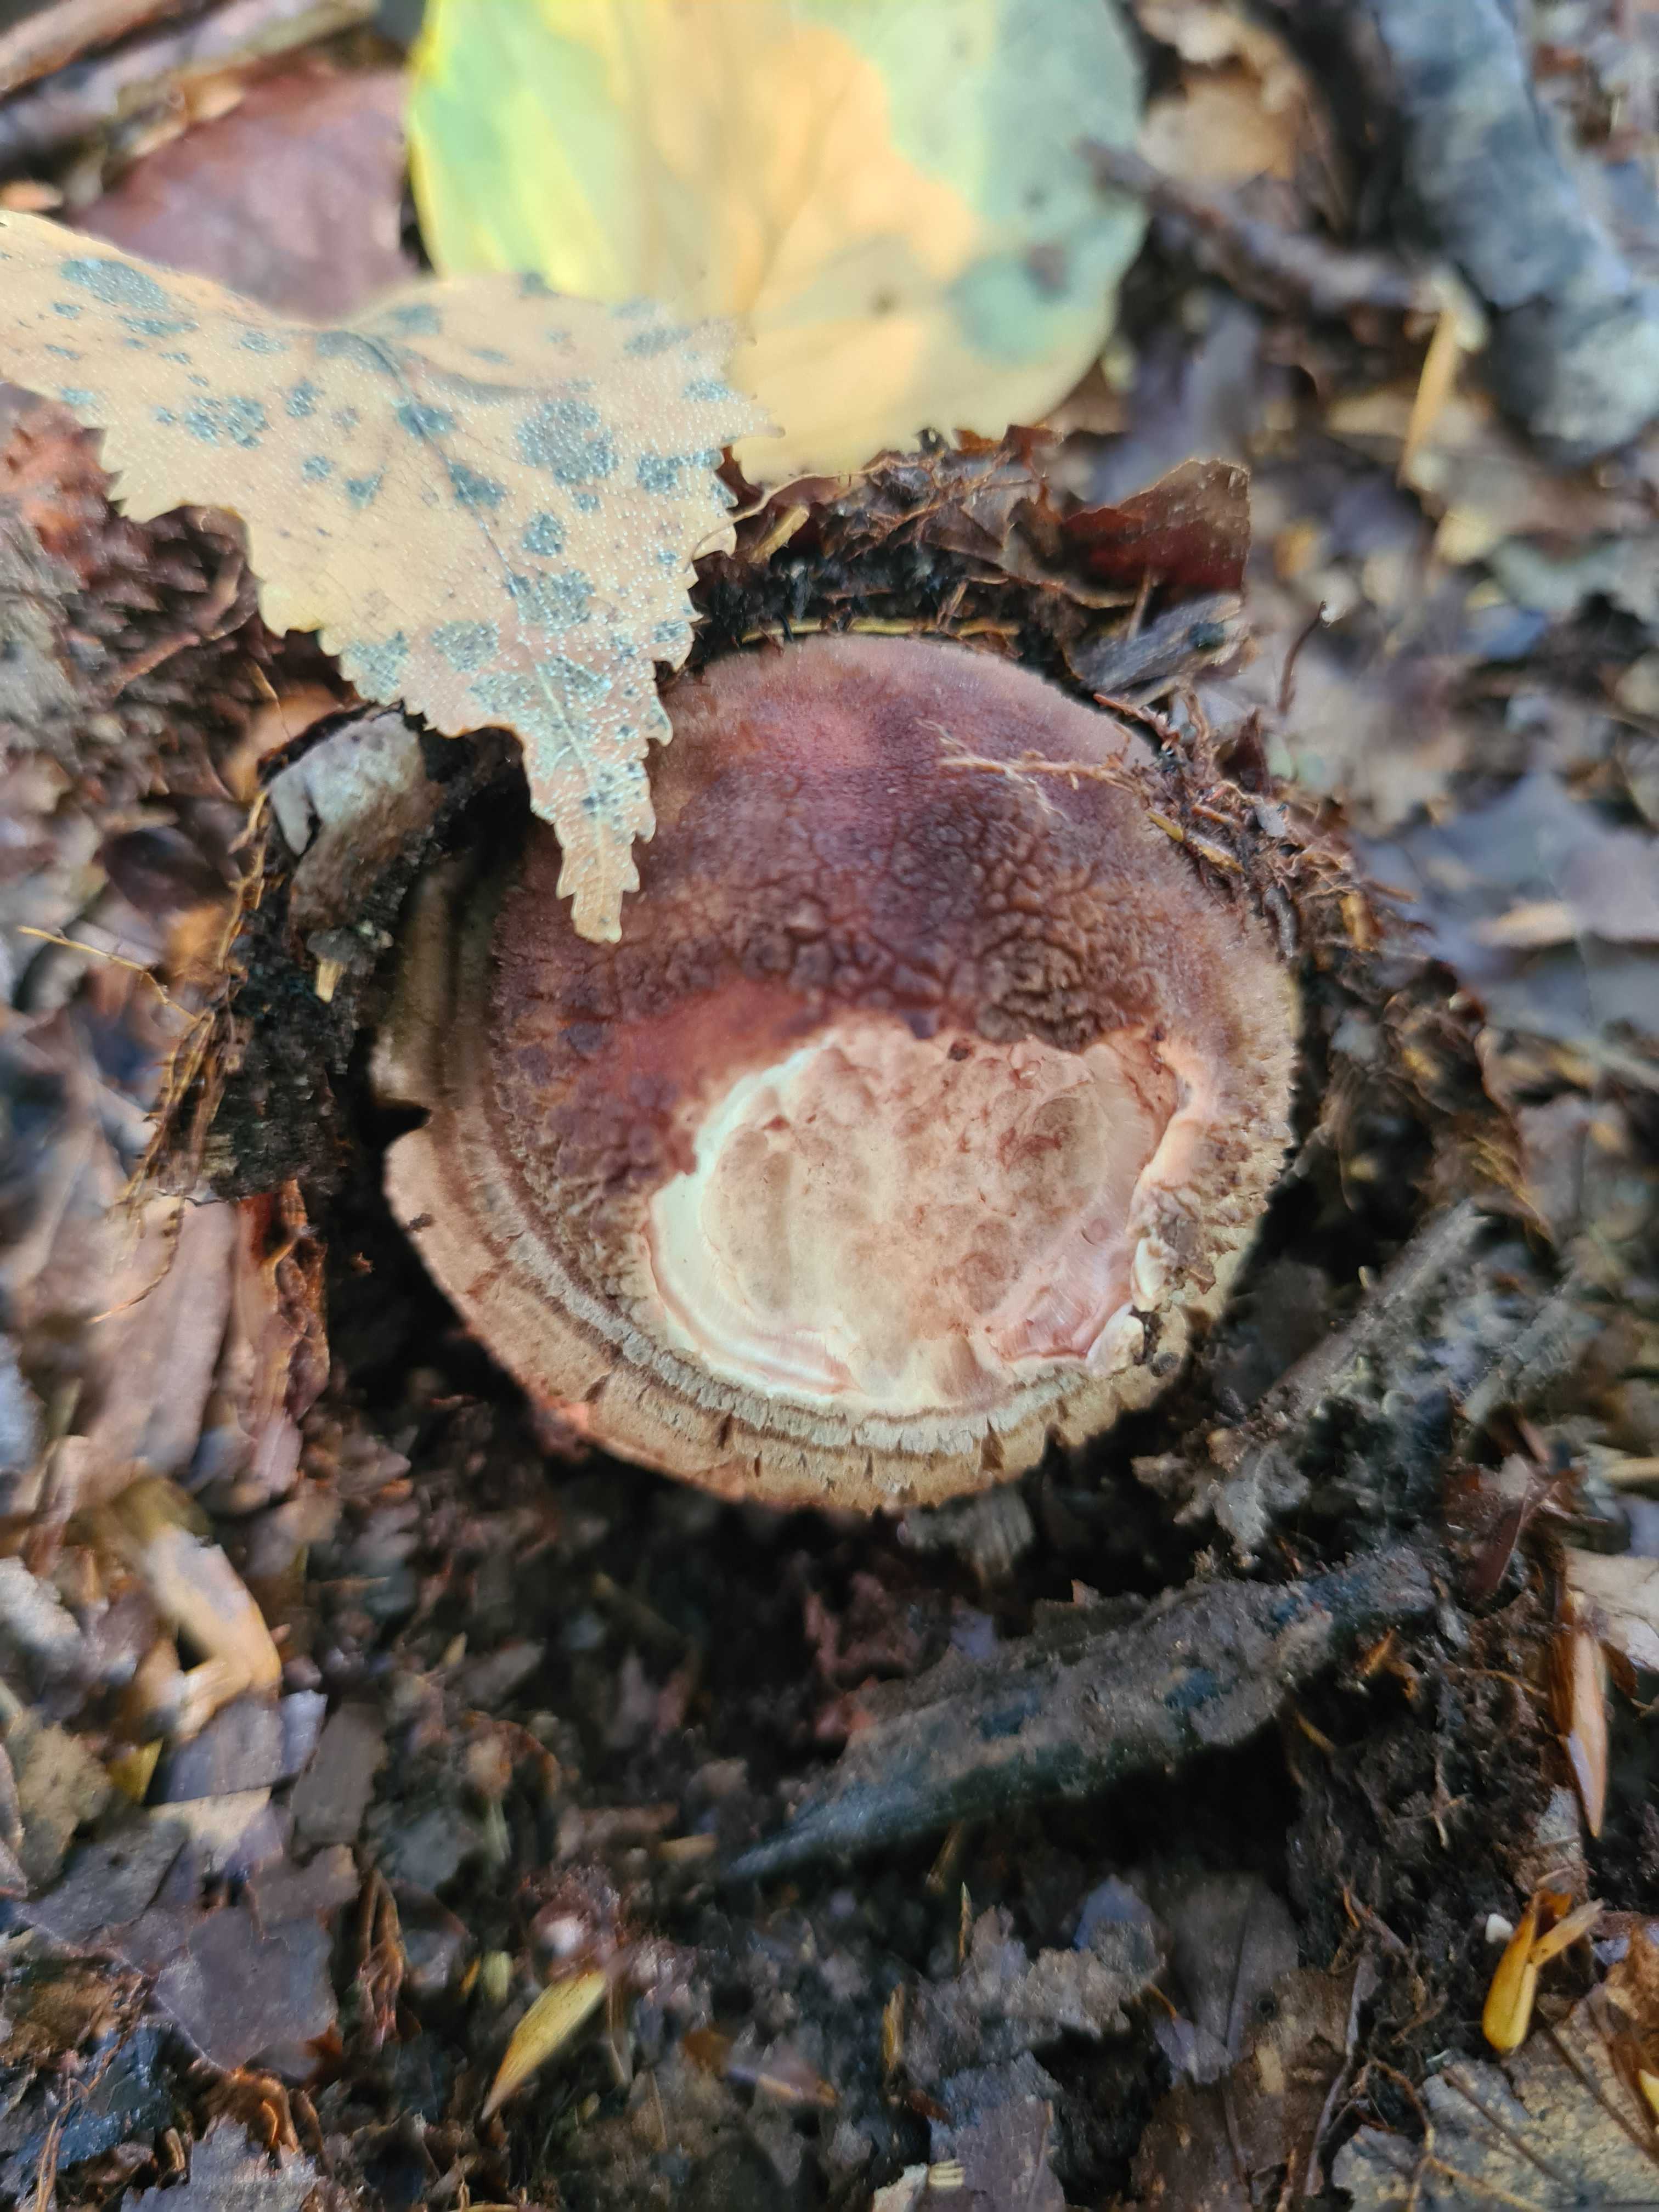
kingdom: Fungi
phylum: Basidiomycota
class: Agaricomycetes
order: Agaricales
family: Amanitaceae
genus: Amanita
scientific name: Amanita rubescens
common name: rødmende fluesvamp
